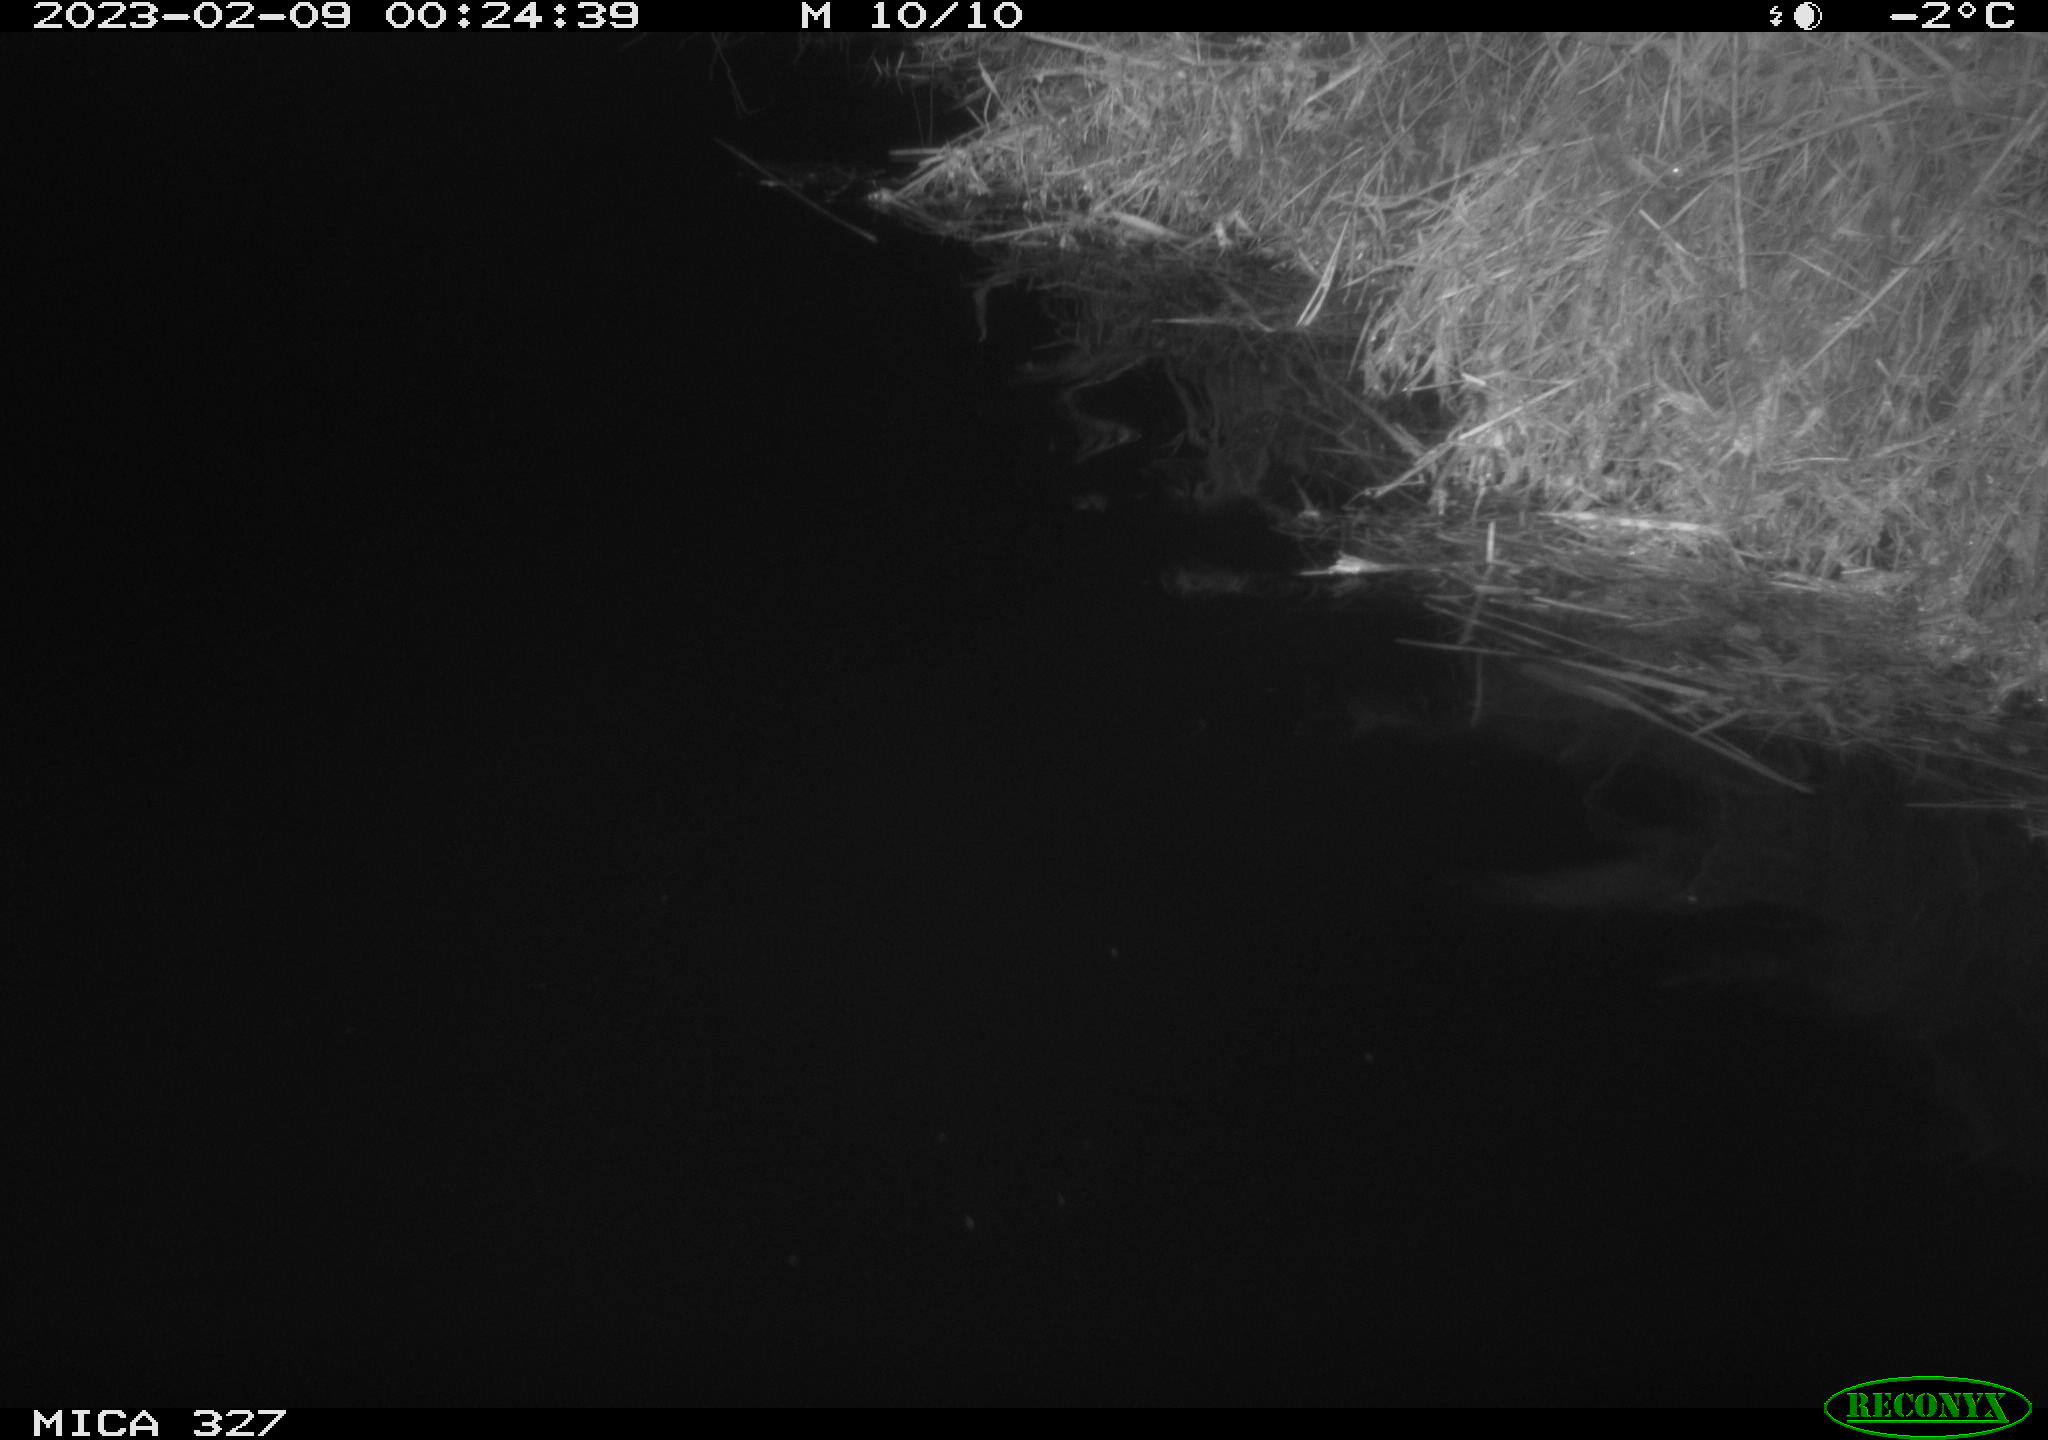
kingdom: Animalia
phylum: Chordata
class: Mammalia
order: Rodentia
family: Cricetidae
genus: Ondatra
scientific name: Ondatra zibethicus
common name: Muskrat
